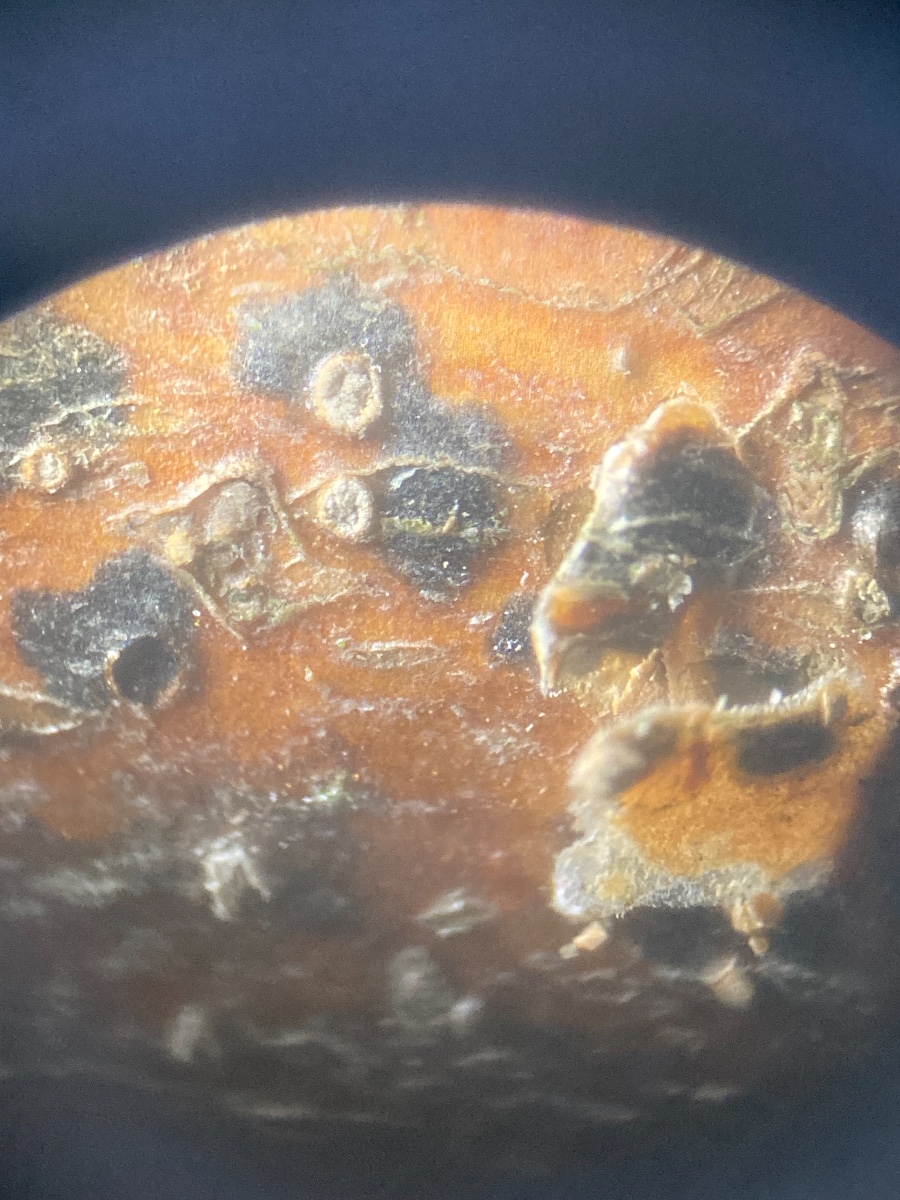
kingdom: Fungi
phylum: Ascomycota
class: Sordariomycetes
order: Diaporthales
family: Melanconidaceae
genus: Melanconium
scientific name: Melanconium stromaticum
